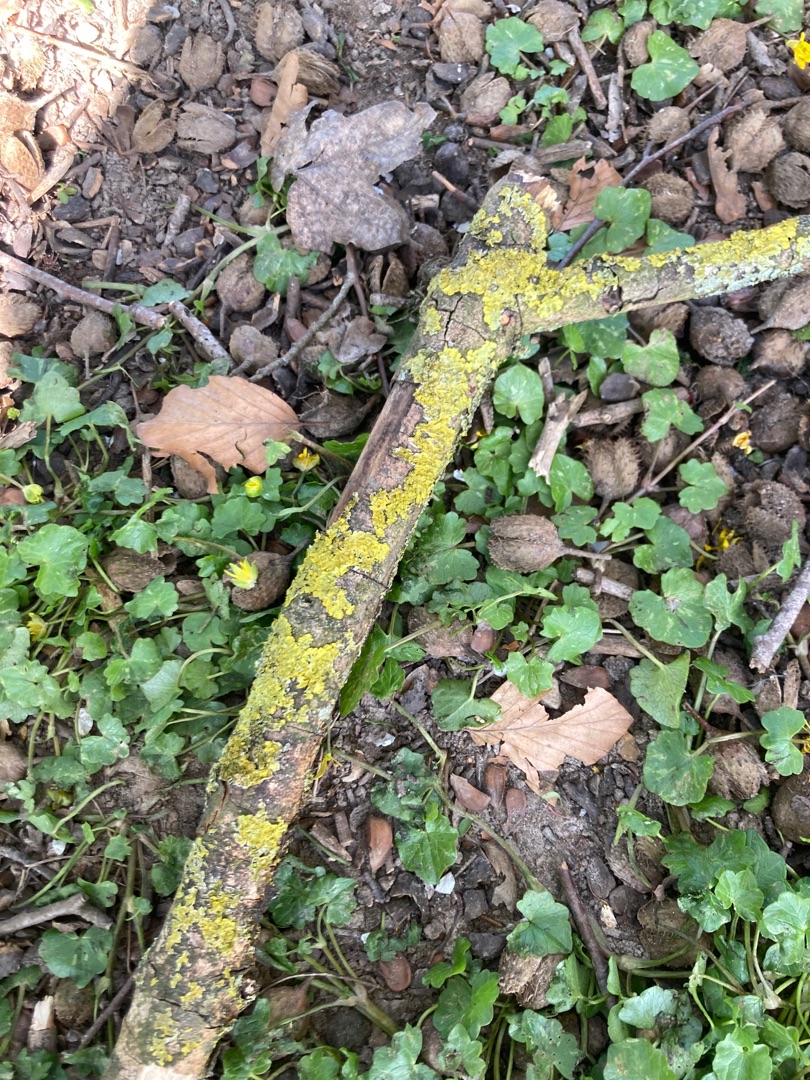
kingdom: Fungi
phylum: Ascomycota
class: Lecanoromycetes
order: Teloschistales
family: Teloschistaceae
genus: Xanthoria
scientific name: Xanthoria parietina
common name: Almindelig væggelav
